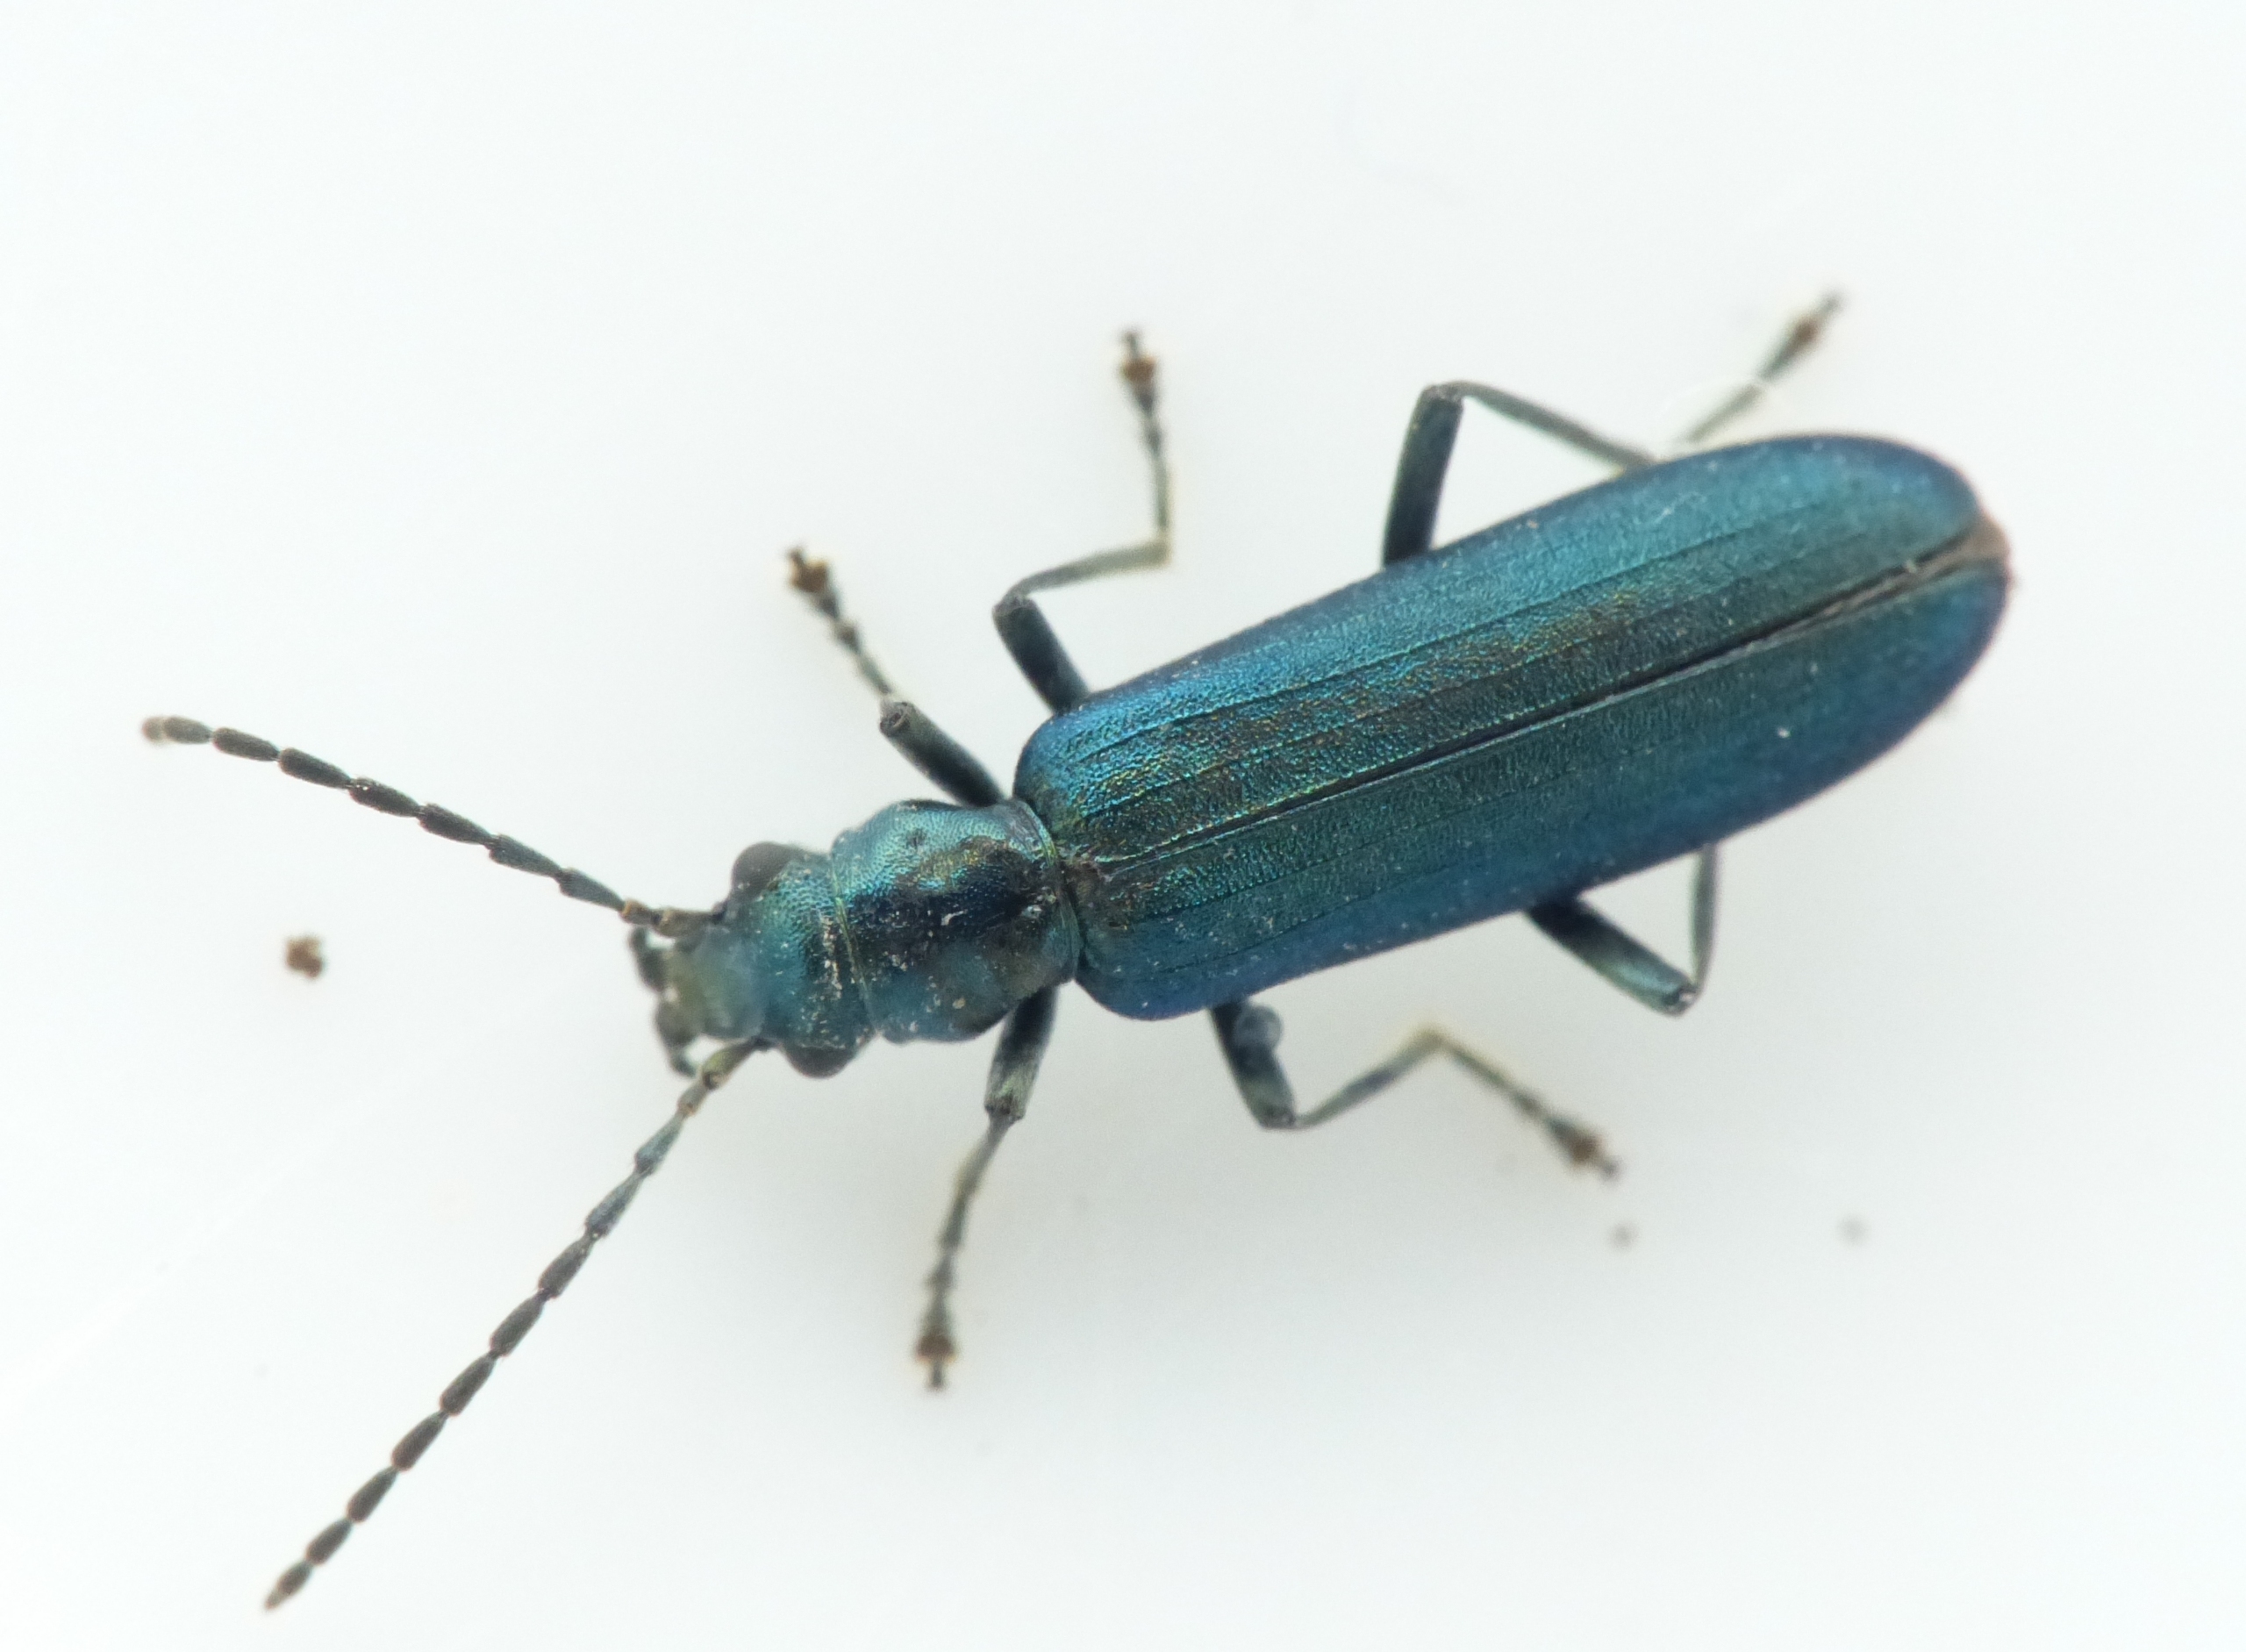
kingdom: Animalia
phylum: Arthropoda
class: Insecta
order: Coleoptera
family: Oedemeridae
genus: Ischnomera
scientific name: Ischnomera cyanea
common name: Blågrøn solbille
